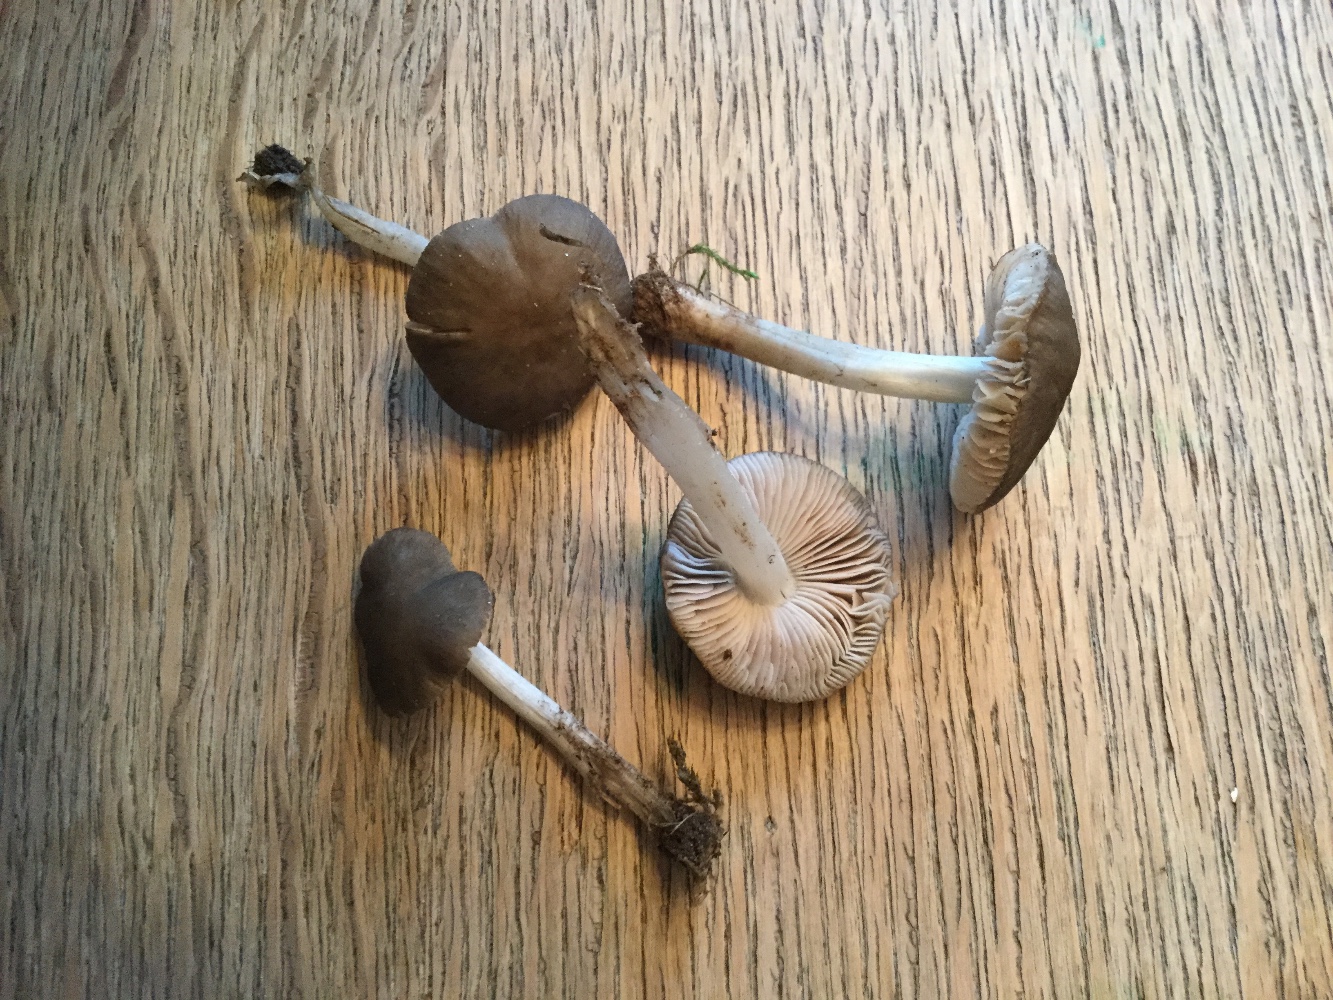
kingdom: Fungi
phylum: Basidiomycota
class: Agaricomycetes
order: Agaricales
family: Pluteaceae
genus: Pluteus
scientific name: Pluteus
